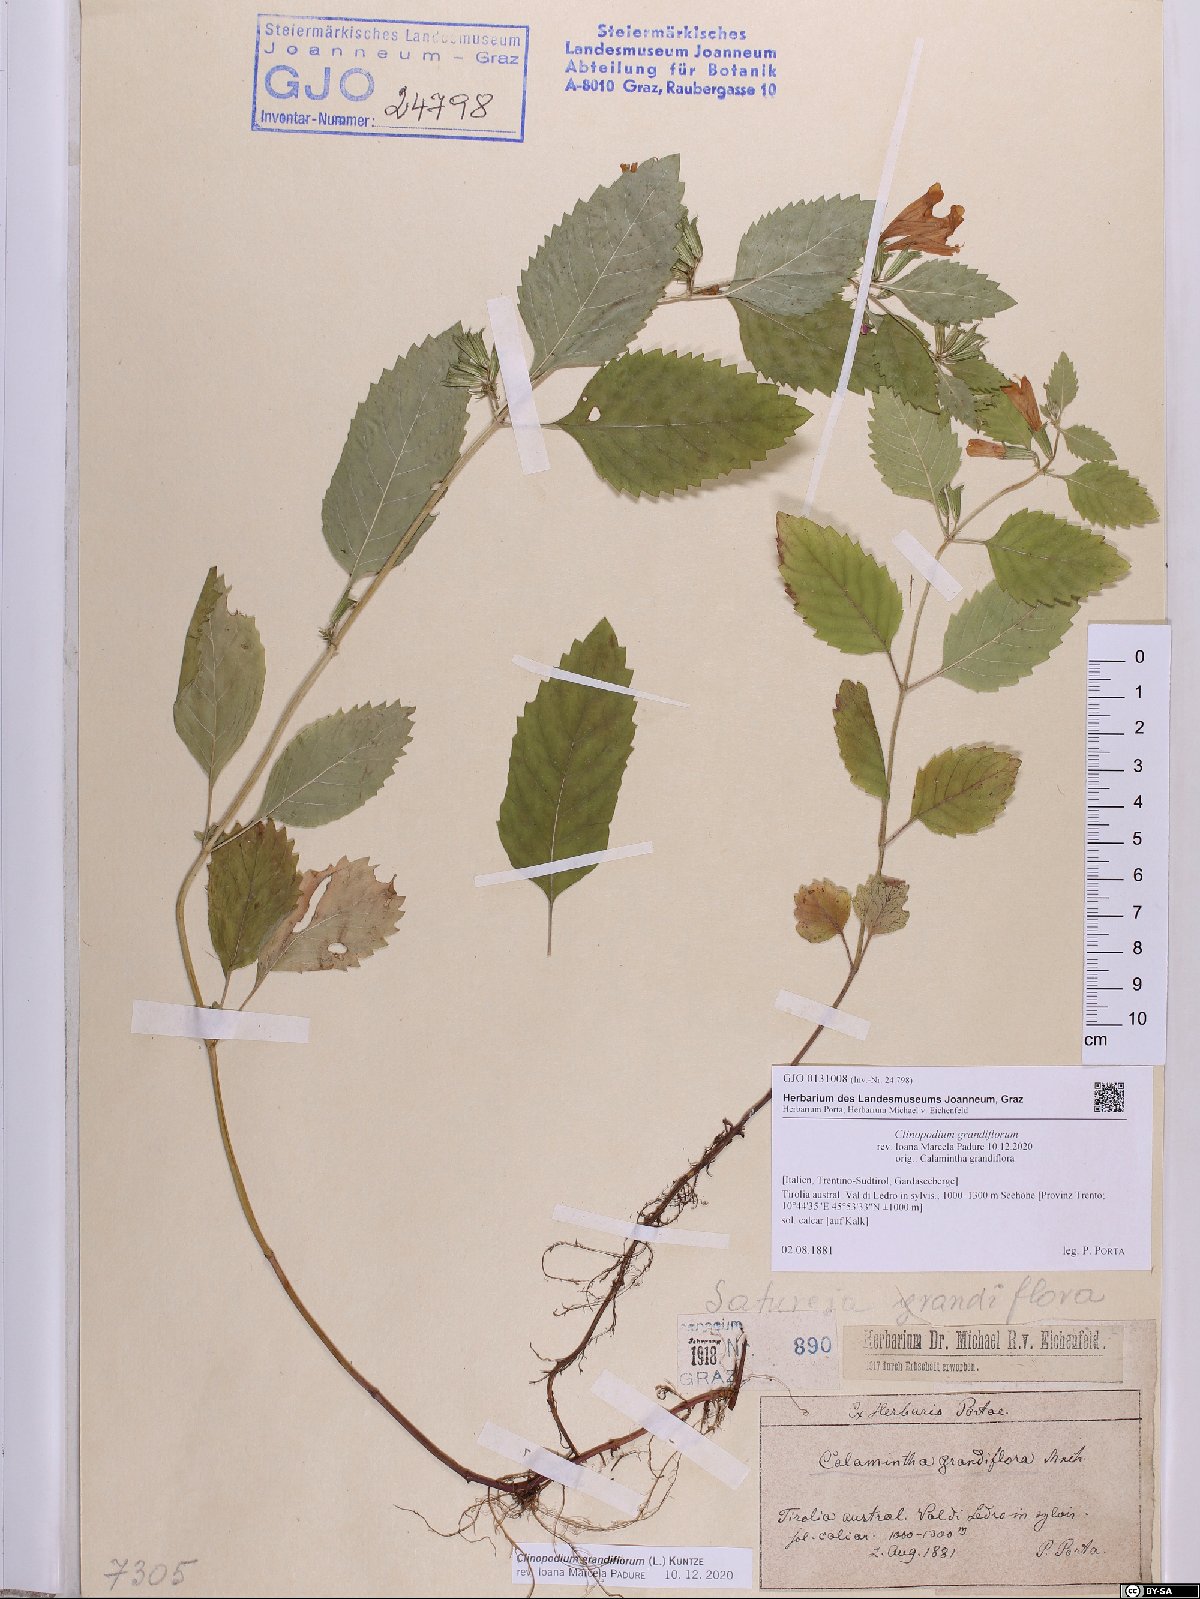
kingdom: Plantae
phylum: Tracheophyta
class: Magnoliopsida
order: Lamiales
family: Lamiaceae
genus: Clinopodium
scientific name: Clinopodium grandiflorum
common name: Greater calamint
